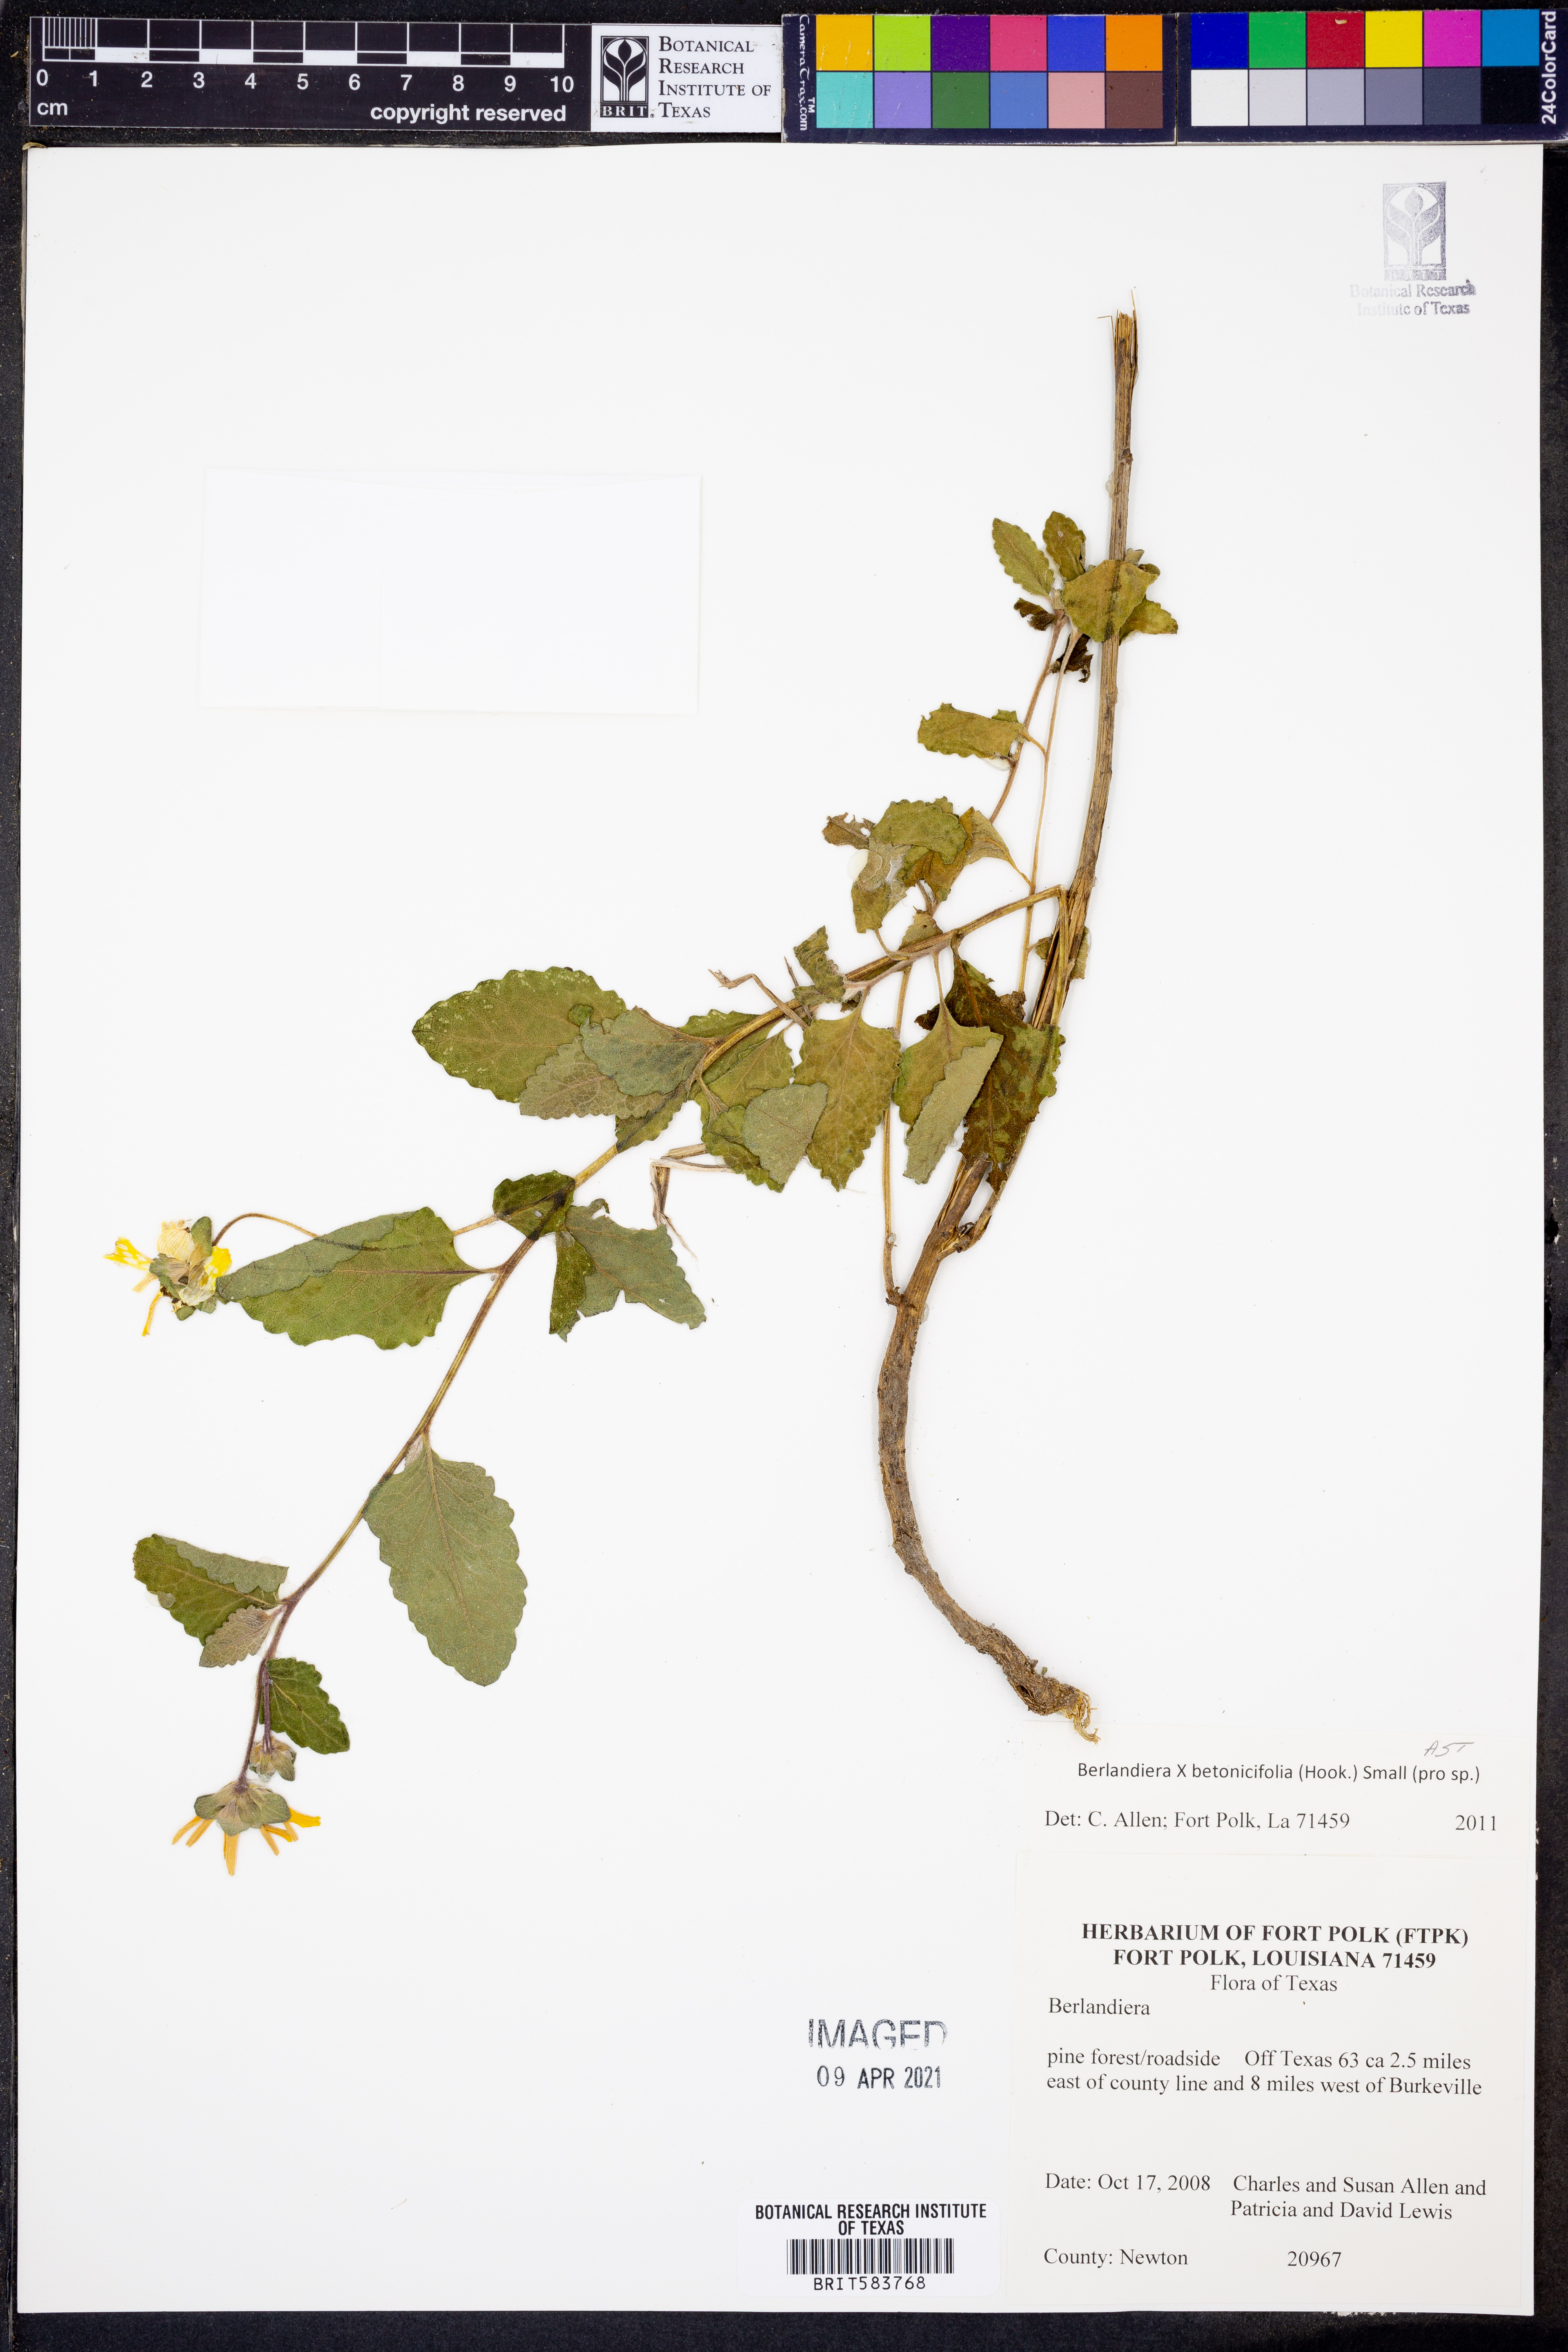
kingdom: Plantae
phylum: Tracheophyta
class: Magnoliopsida
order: Asterales
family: Asteraceae
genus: Berlandiera
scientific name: Berlandiera betonicifolia
